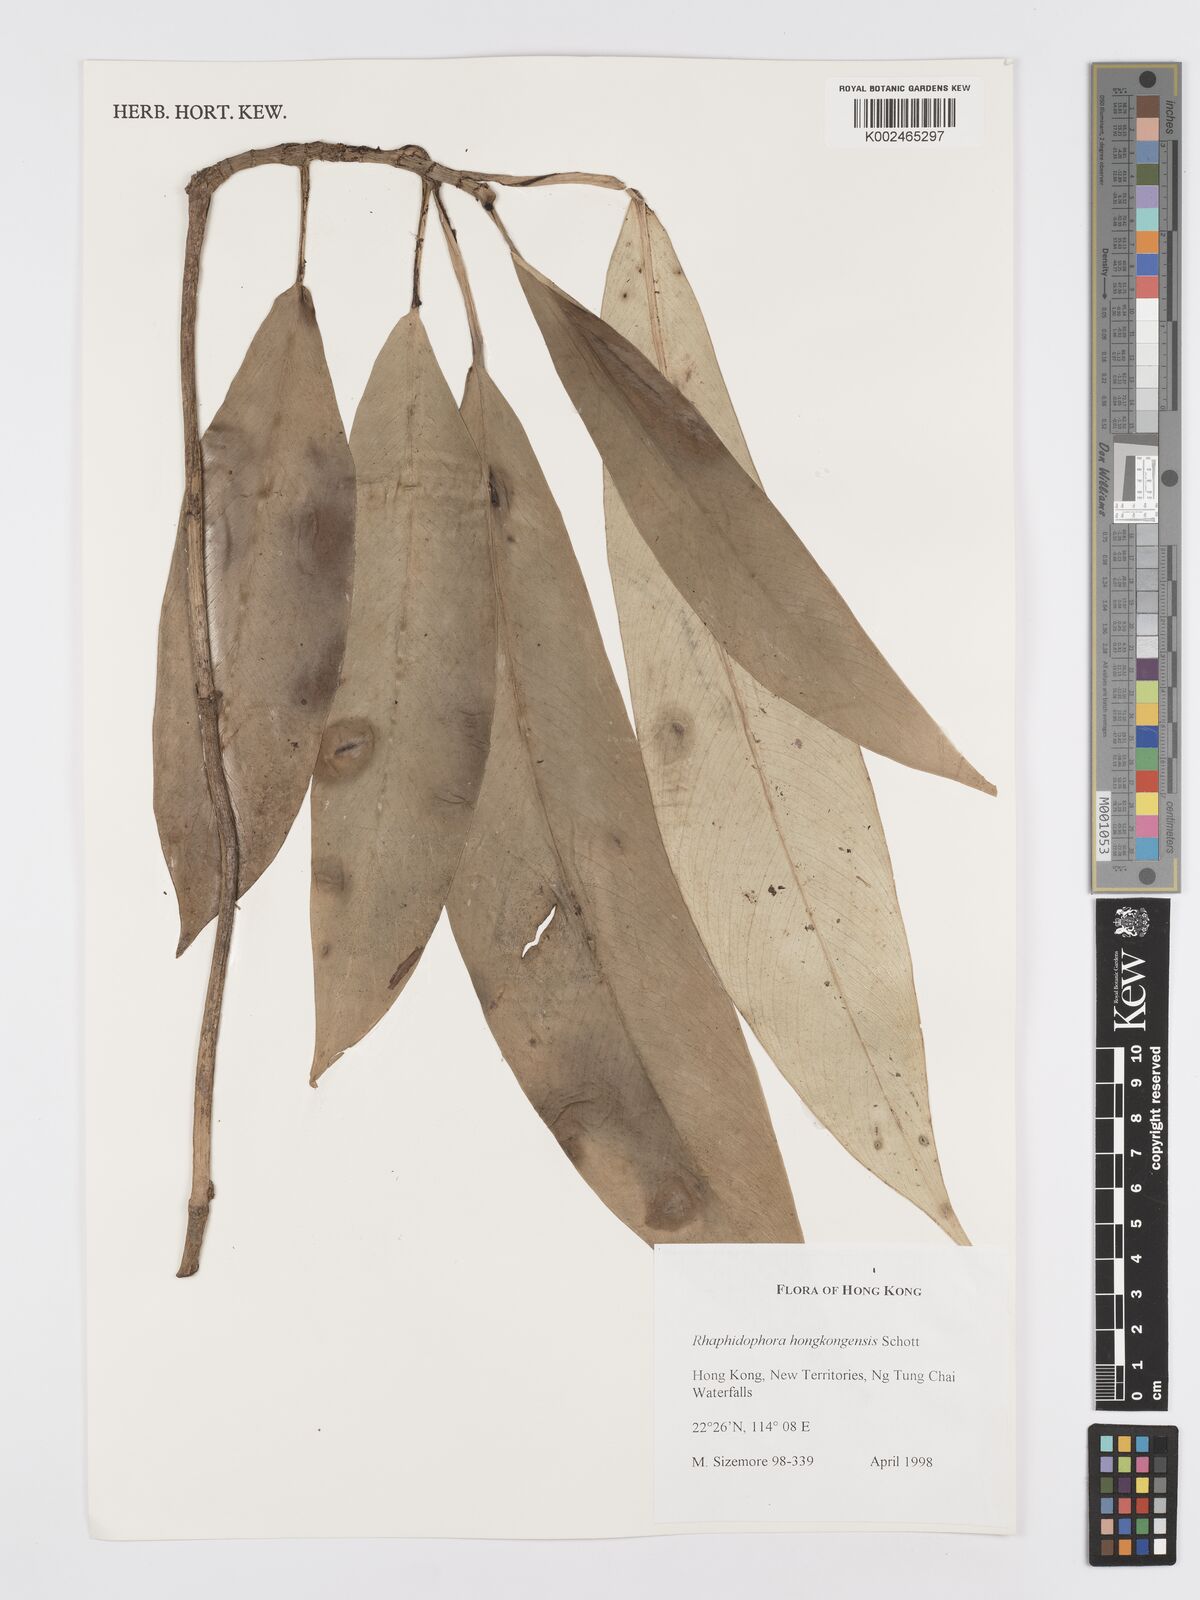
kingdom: Plantae
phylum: Tracheophyta
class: Liliopsida
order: Alismatales
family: Araceae
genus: Rhaphidophora
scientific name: Rhaphidophora hongkongensis
